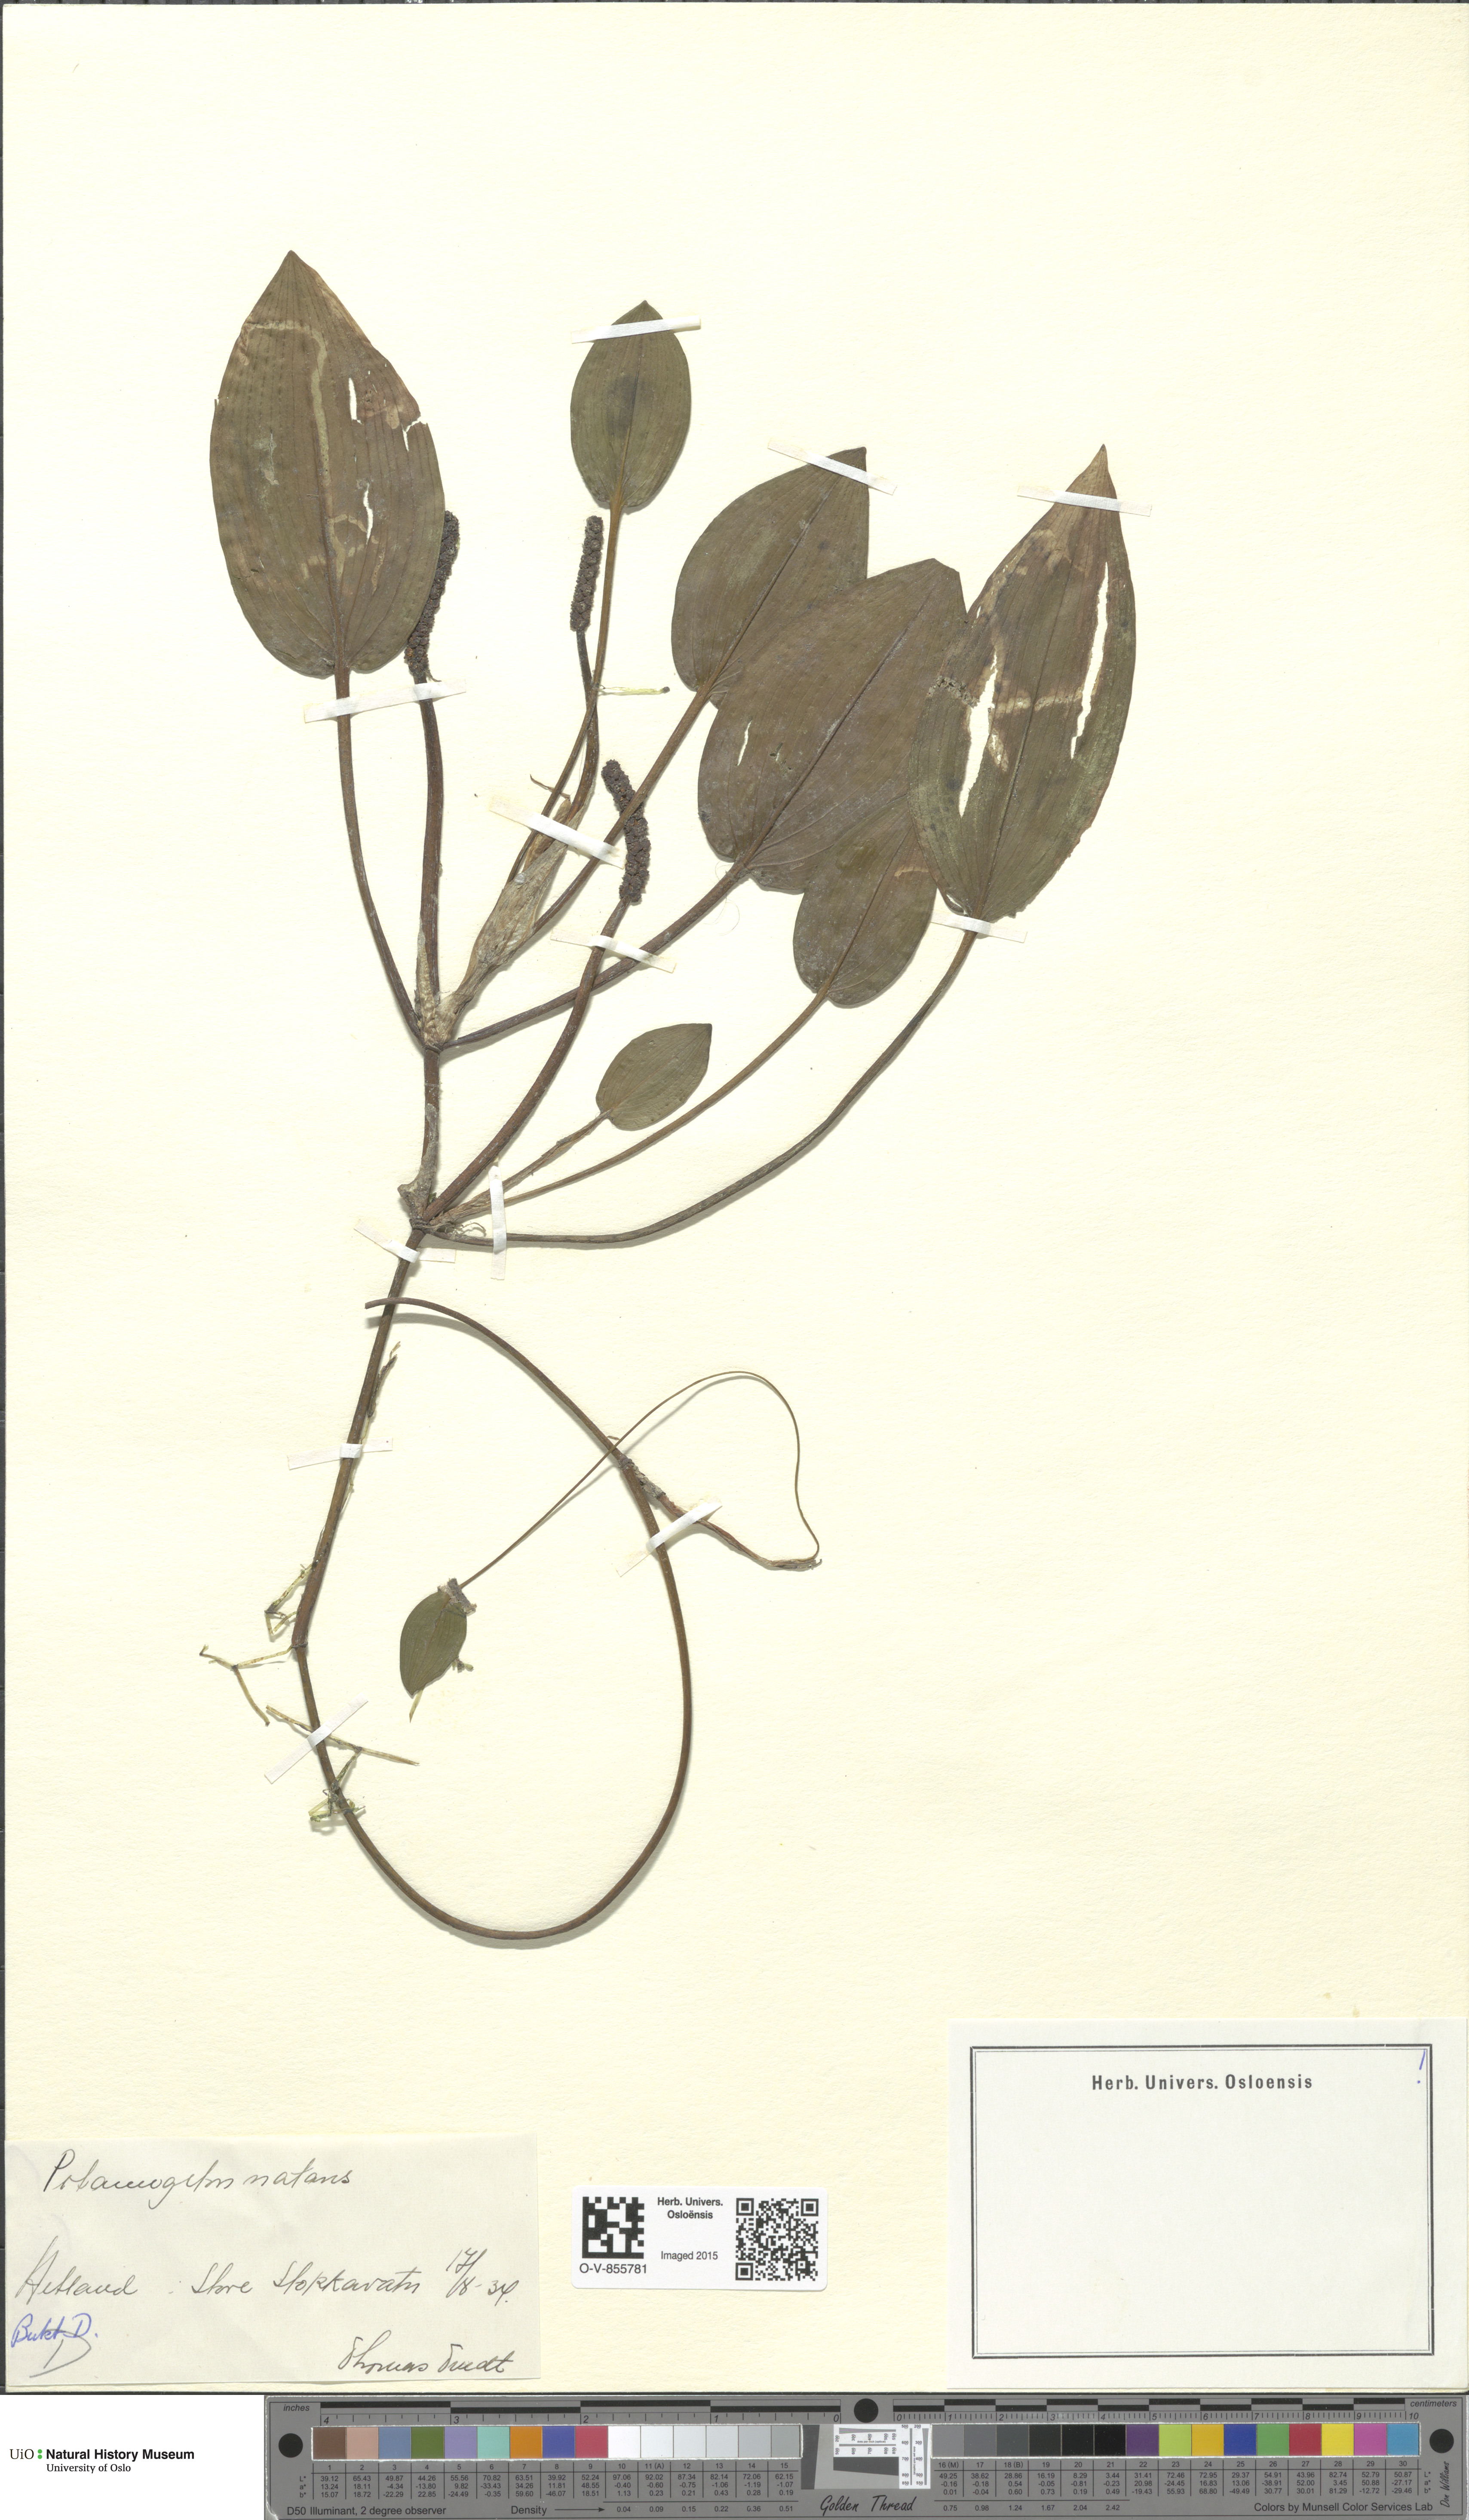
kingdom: Plantae
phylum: Tracheophyta
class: Liliopsida
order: Alismatales
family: Potamogetonaceae
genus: Potamogeton
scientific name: Potamogeton natans
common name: Broad-leaved pondweed
